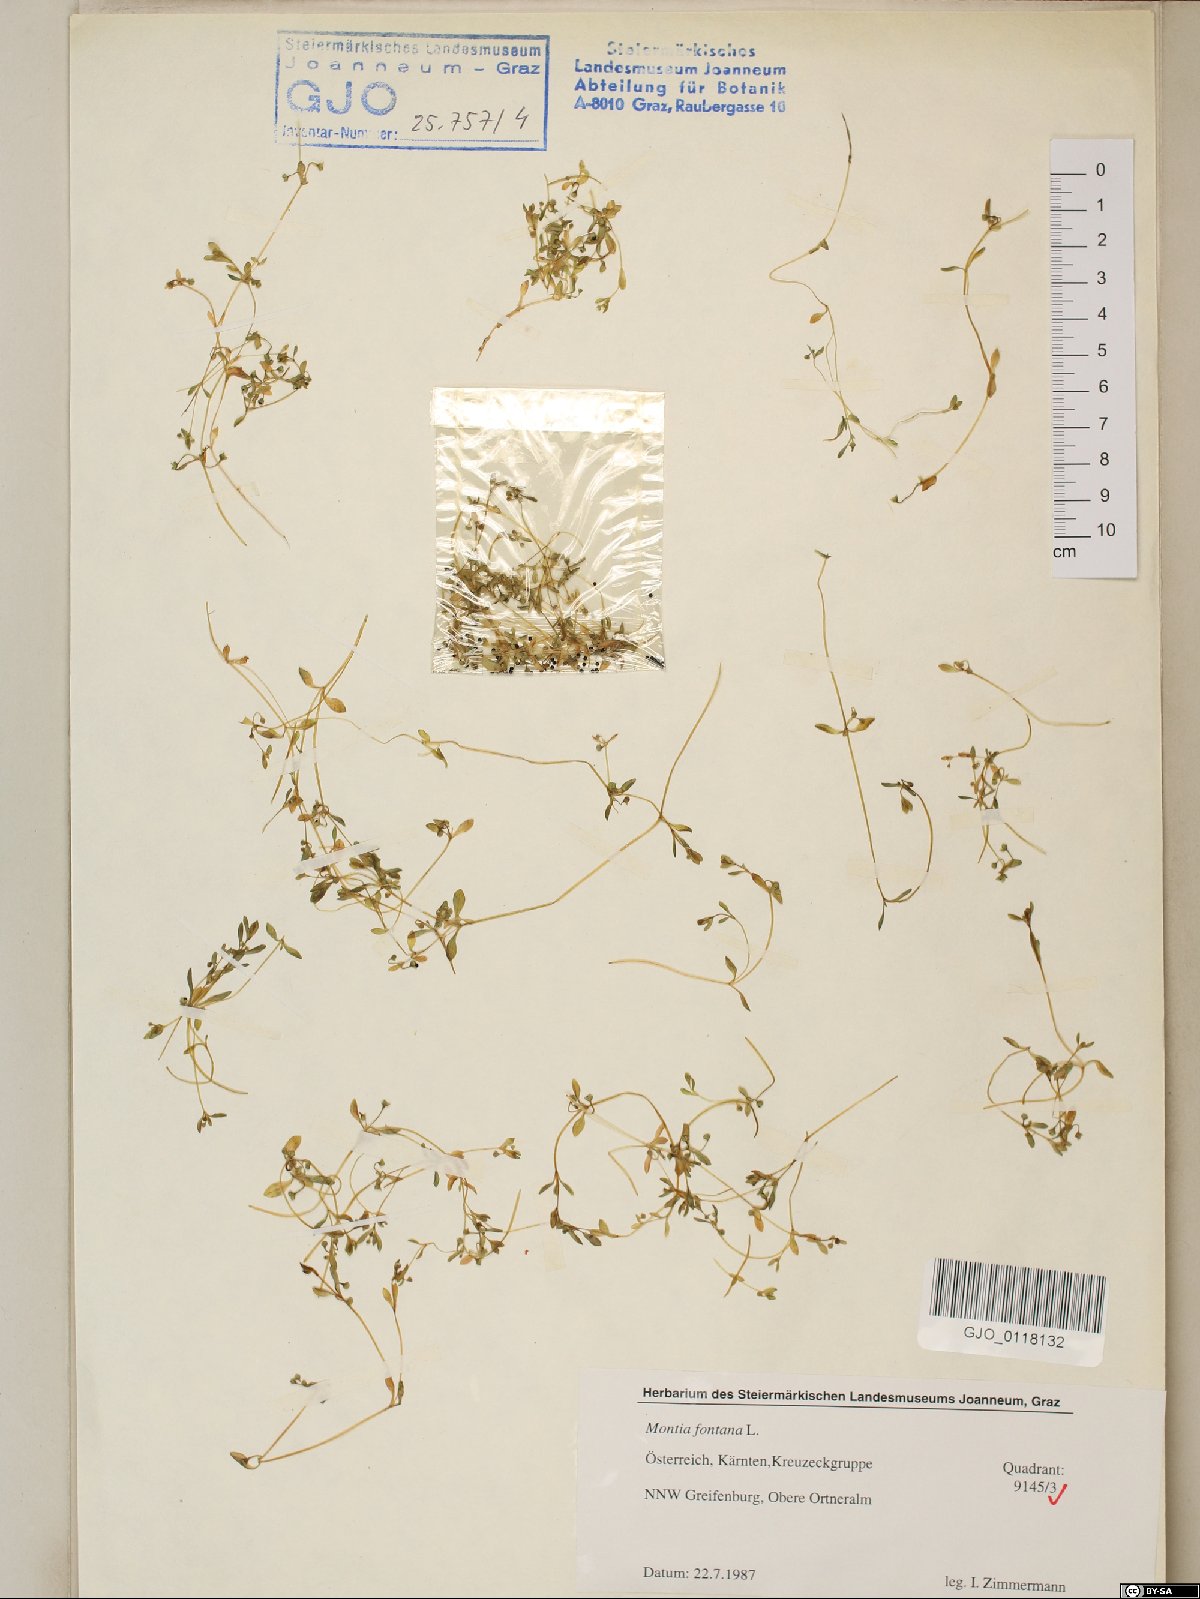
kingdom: Plantae
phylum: Tracheophyta
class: Magnoliopsida
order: Caryophyllales
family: Montiaceae
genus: Montia
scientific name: Montia fontana
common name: Blinks
